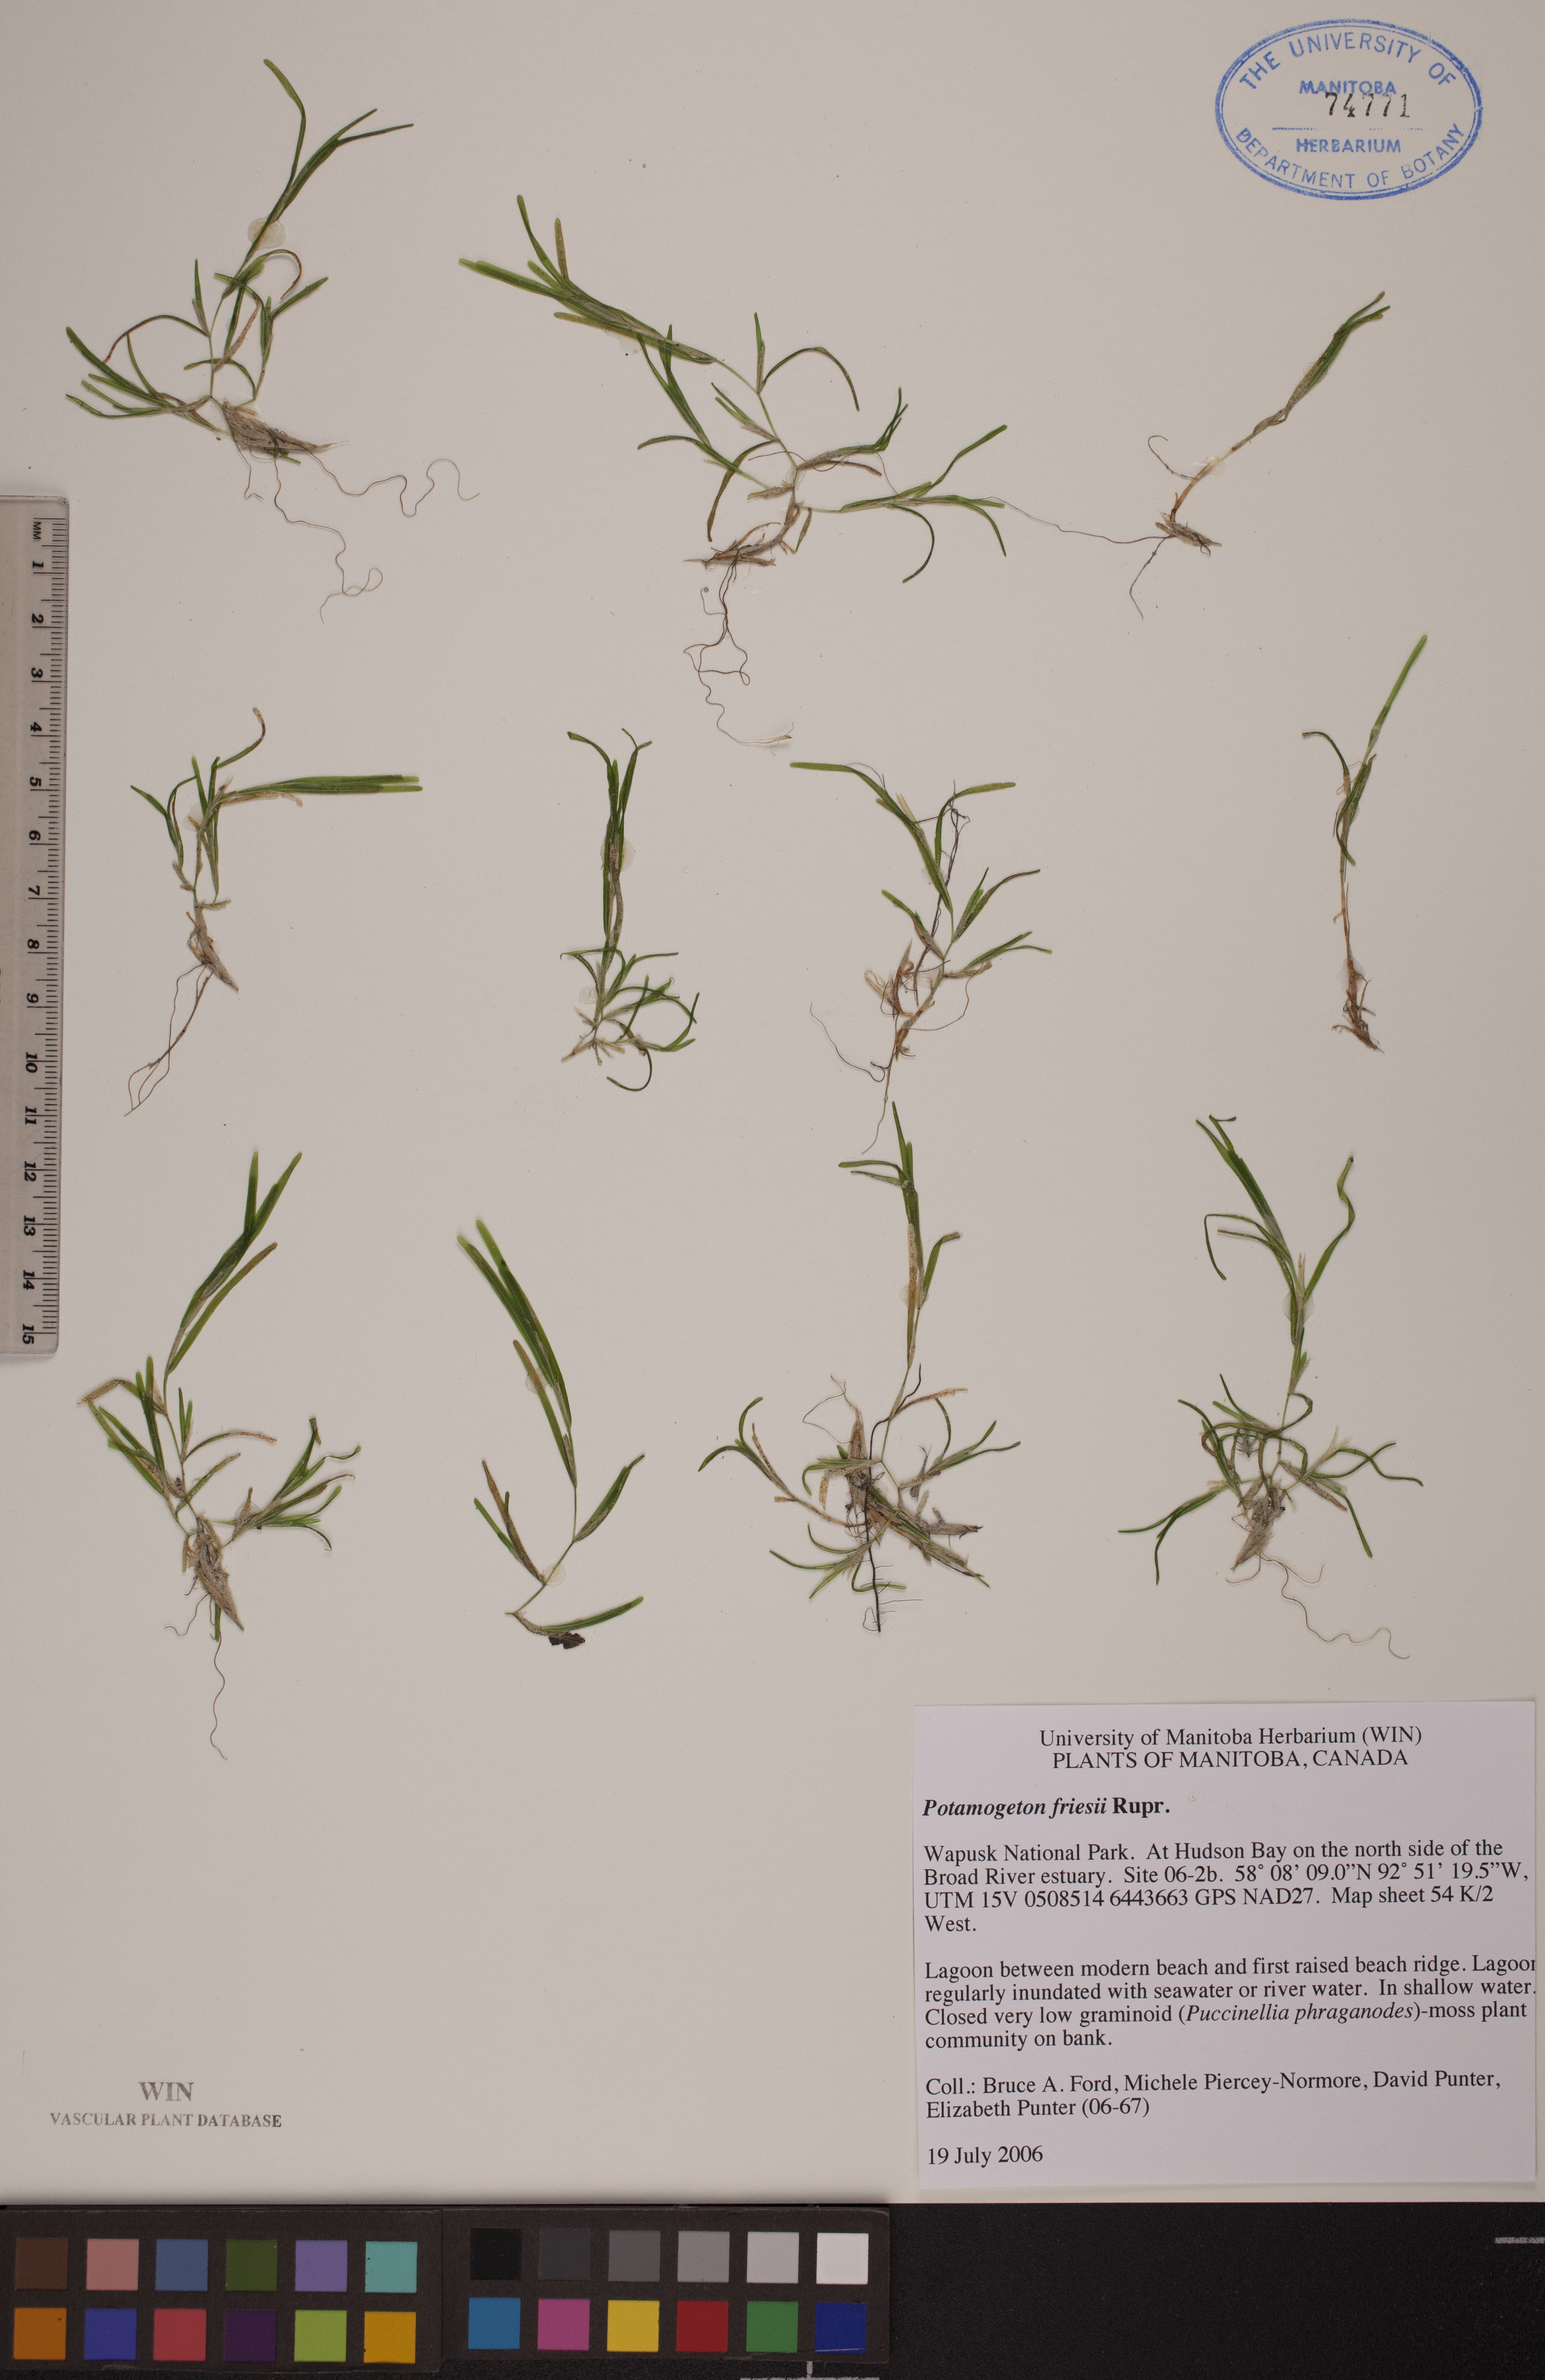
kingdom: Plantae
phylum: Tracheophyta
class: Liliopsida
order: Alismatales
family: Potamogetonaceae
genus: Potamogeton
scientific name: Potamogeton friesii
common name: Flat-stalked pondweed
